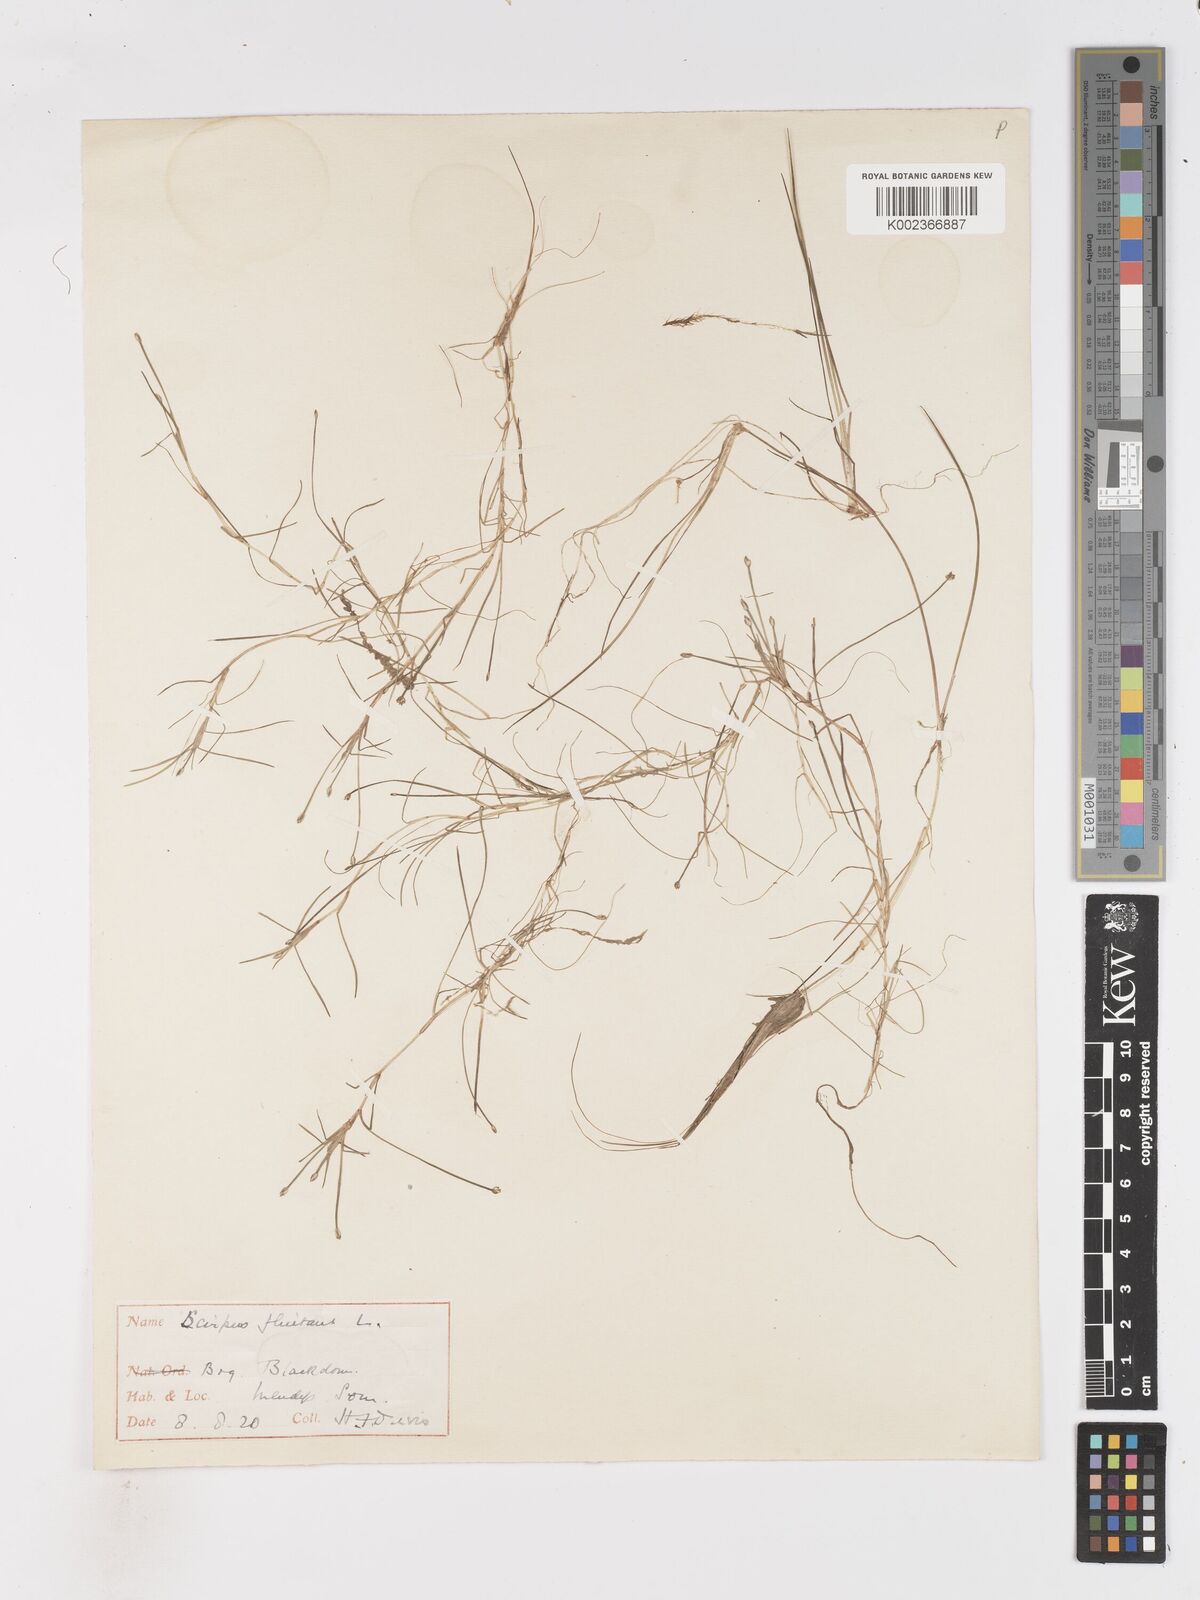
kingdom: Plantae
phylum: Tracheophyta
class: Liliopsida
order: Poales
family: Cyperaceae
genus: Isolepis
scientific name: Isolepis fluitans
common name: Floating club-rush
